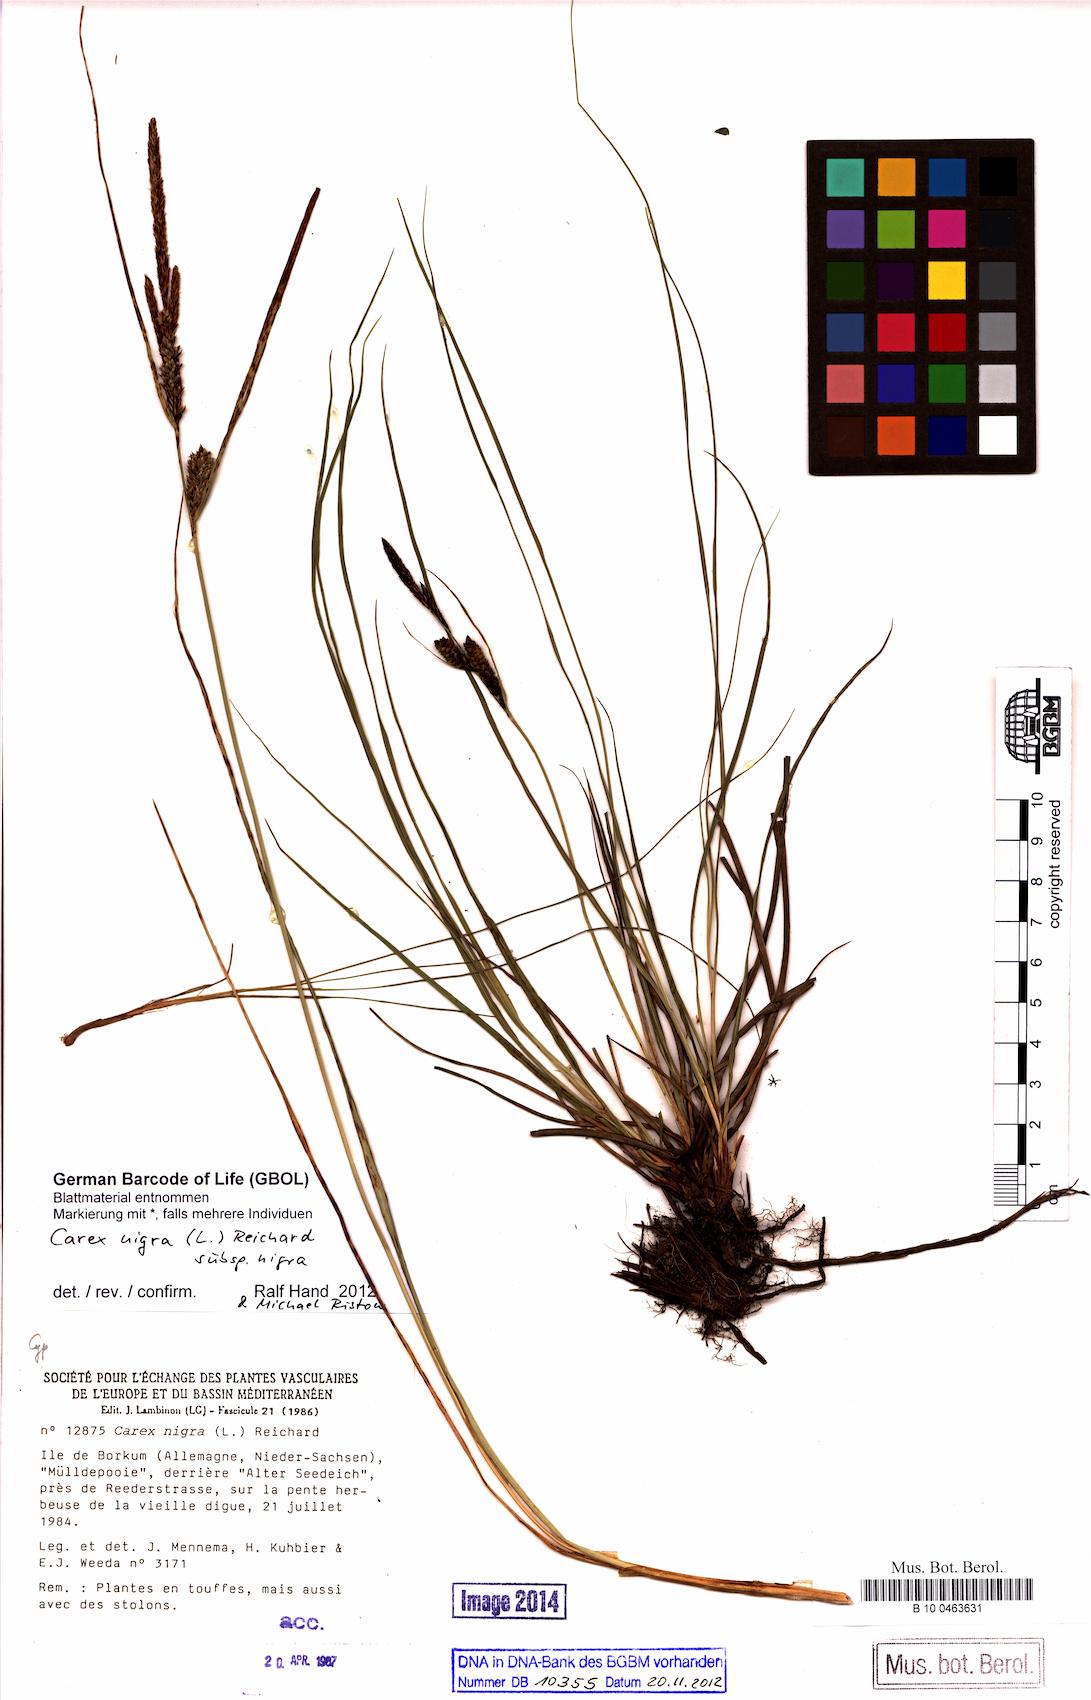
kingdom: Plantae
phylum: Tracheophyta
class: Liliopsida
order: Poales
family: Cyperaceae
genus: Carex
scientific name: Carex nigra
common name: Common sedge
